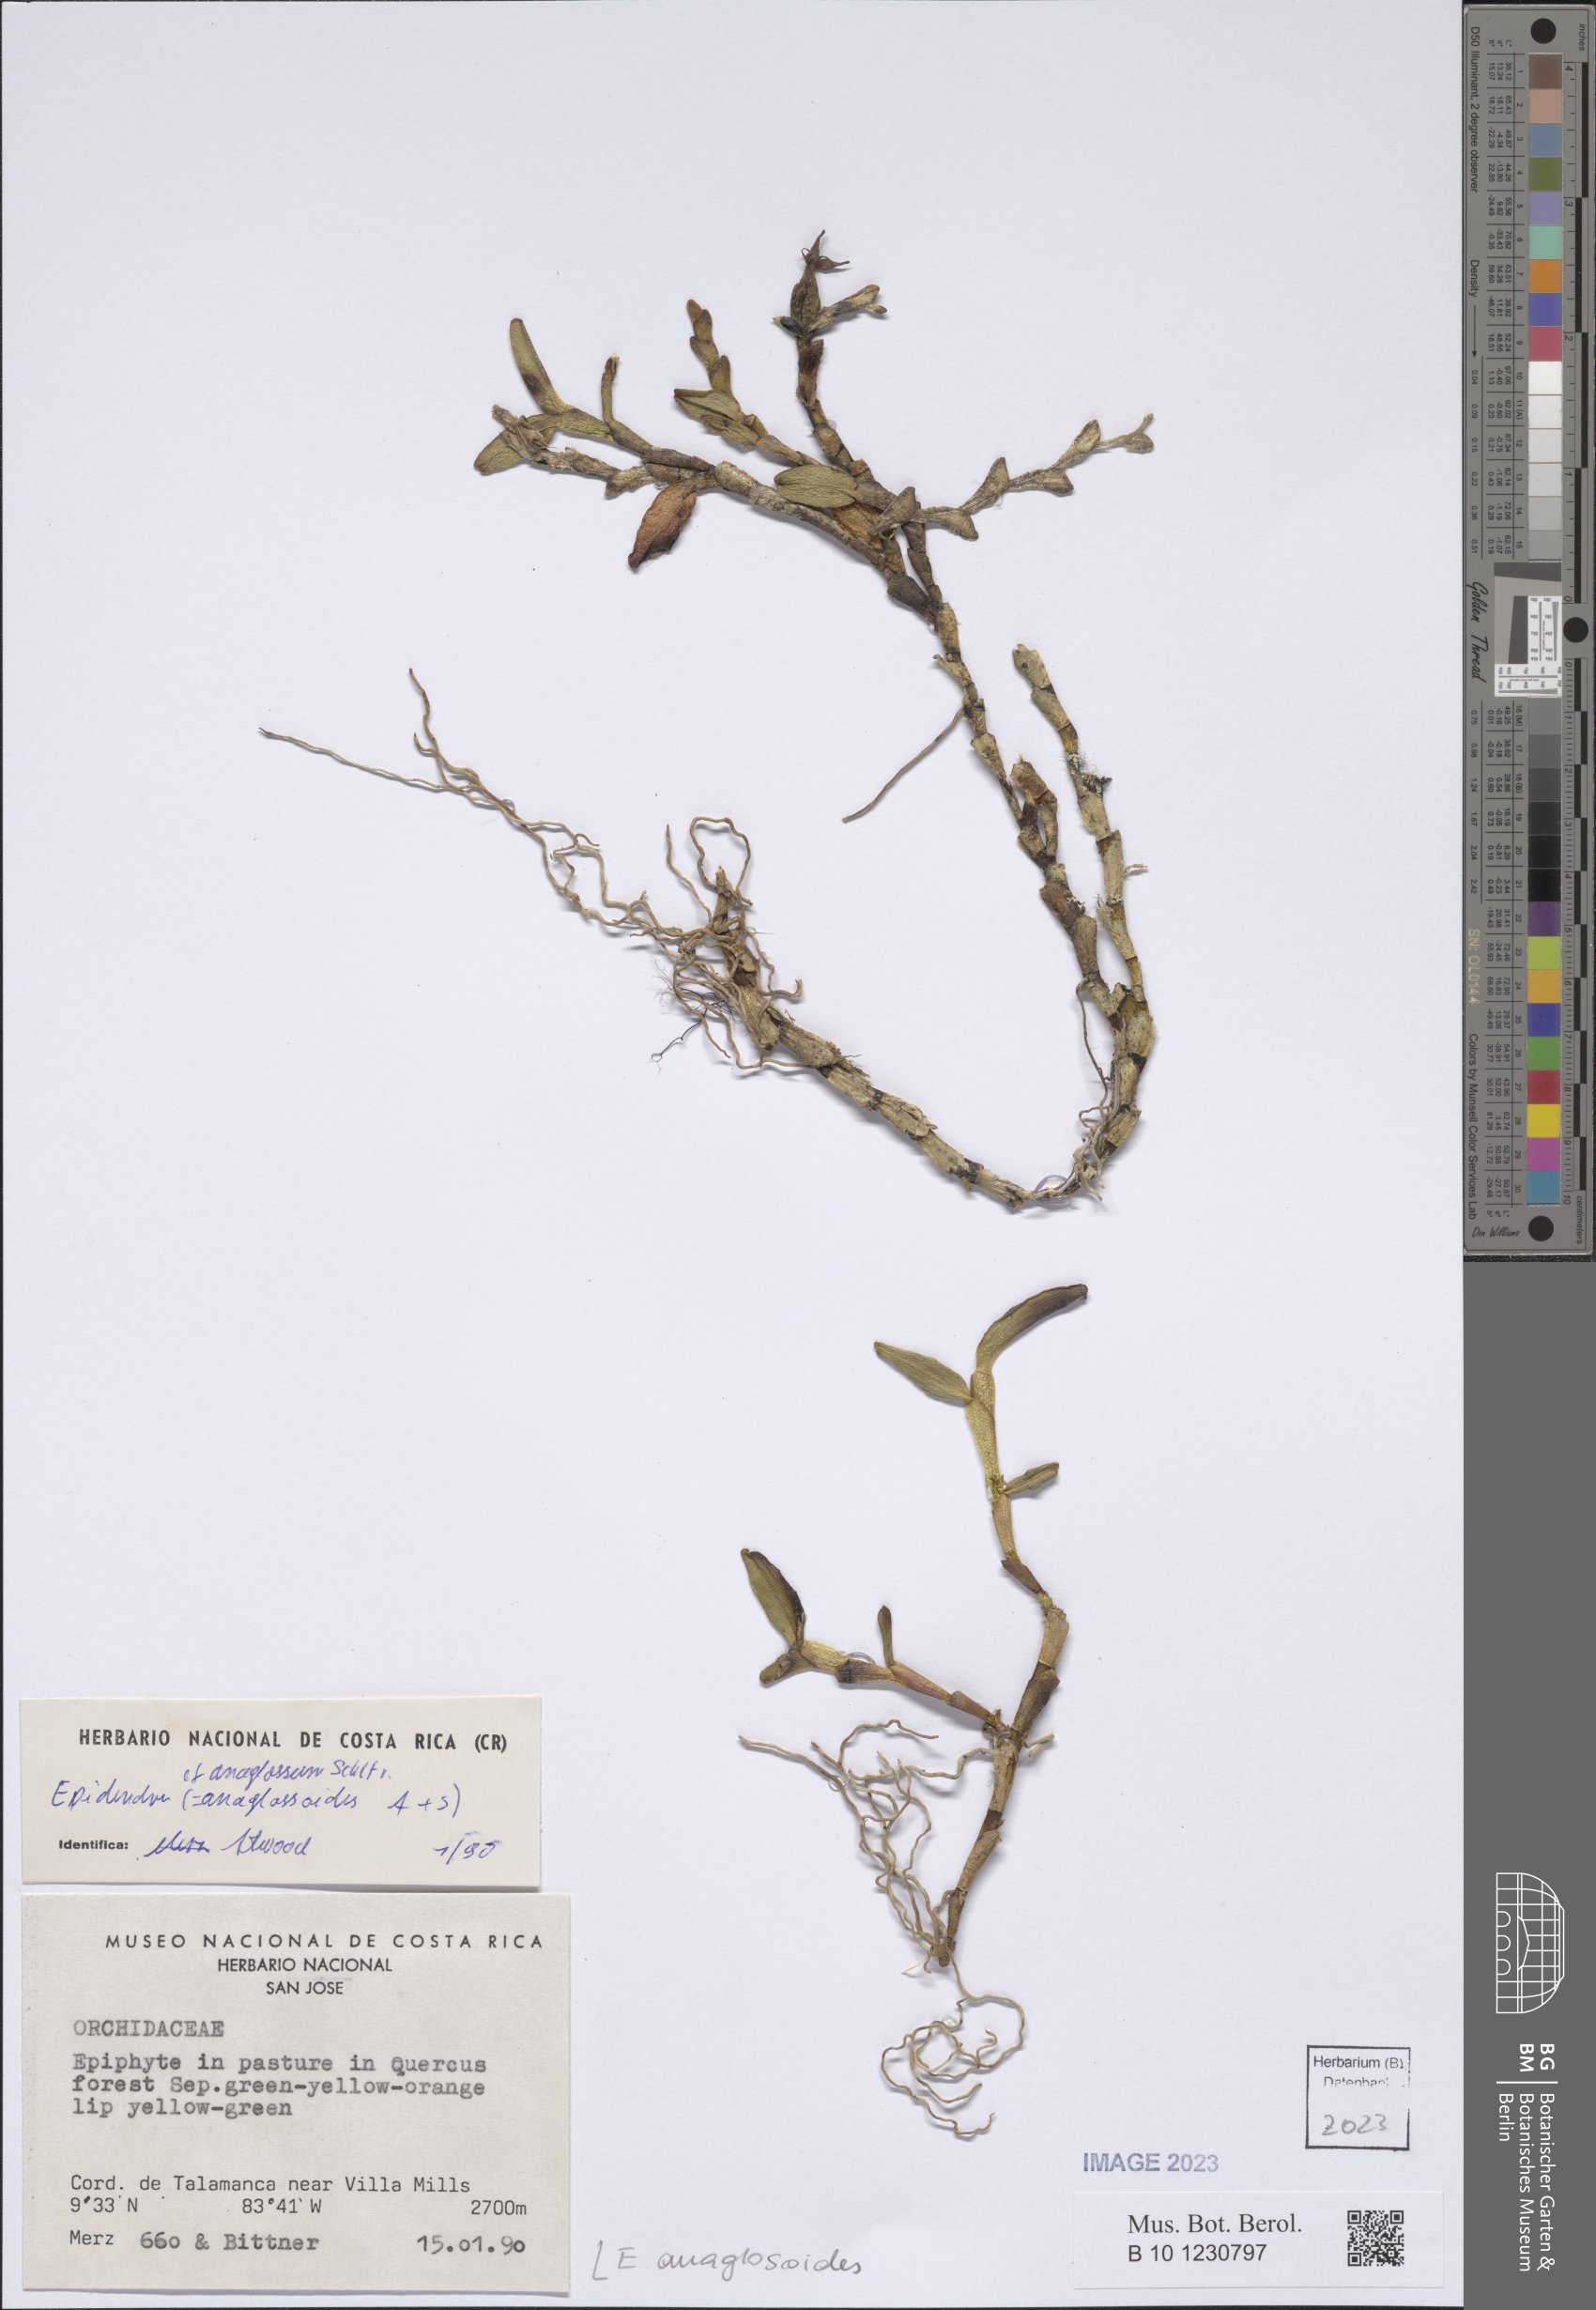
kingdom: Plantae
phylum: Tracheophyta
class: Liliopsida
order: Asparagales
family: Orchidaceae
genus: Epidendrum
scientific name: Epidendrum anaglosoides
